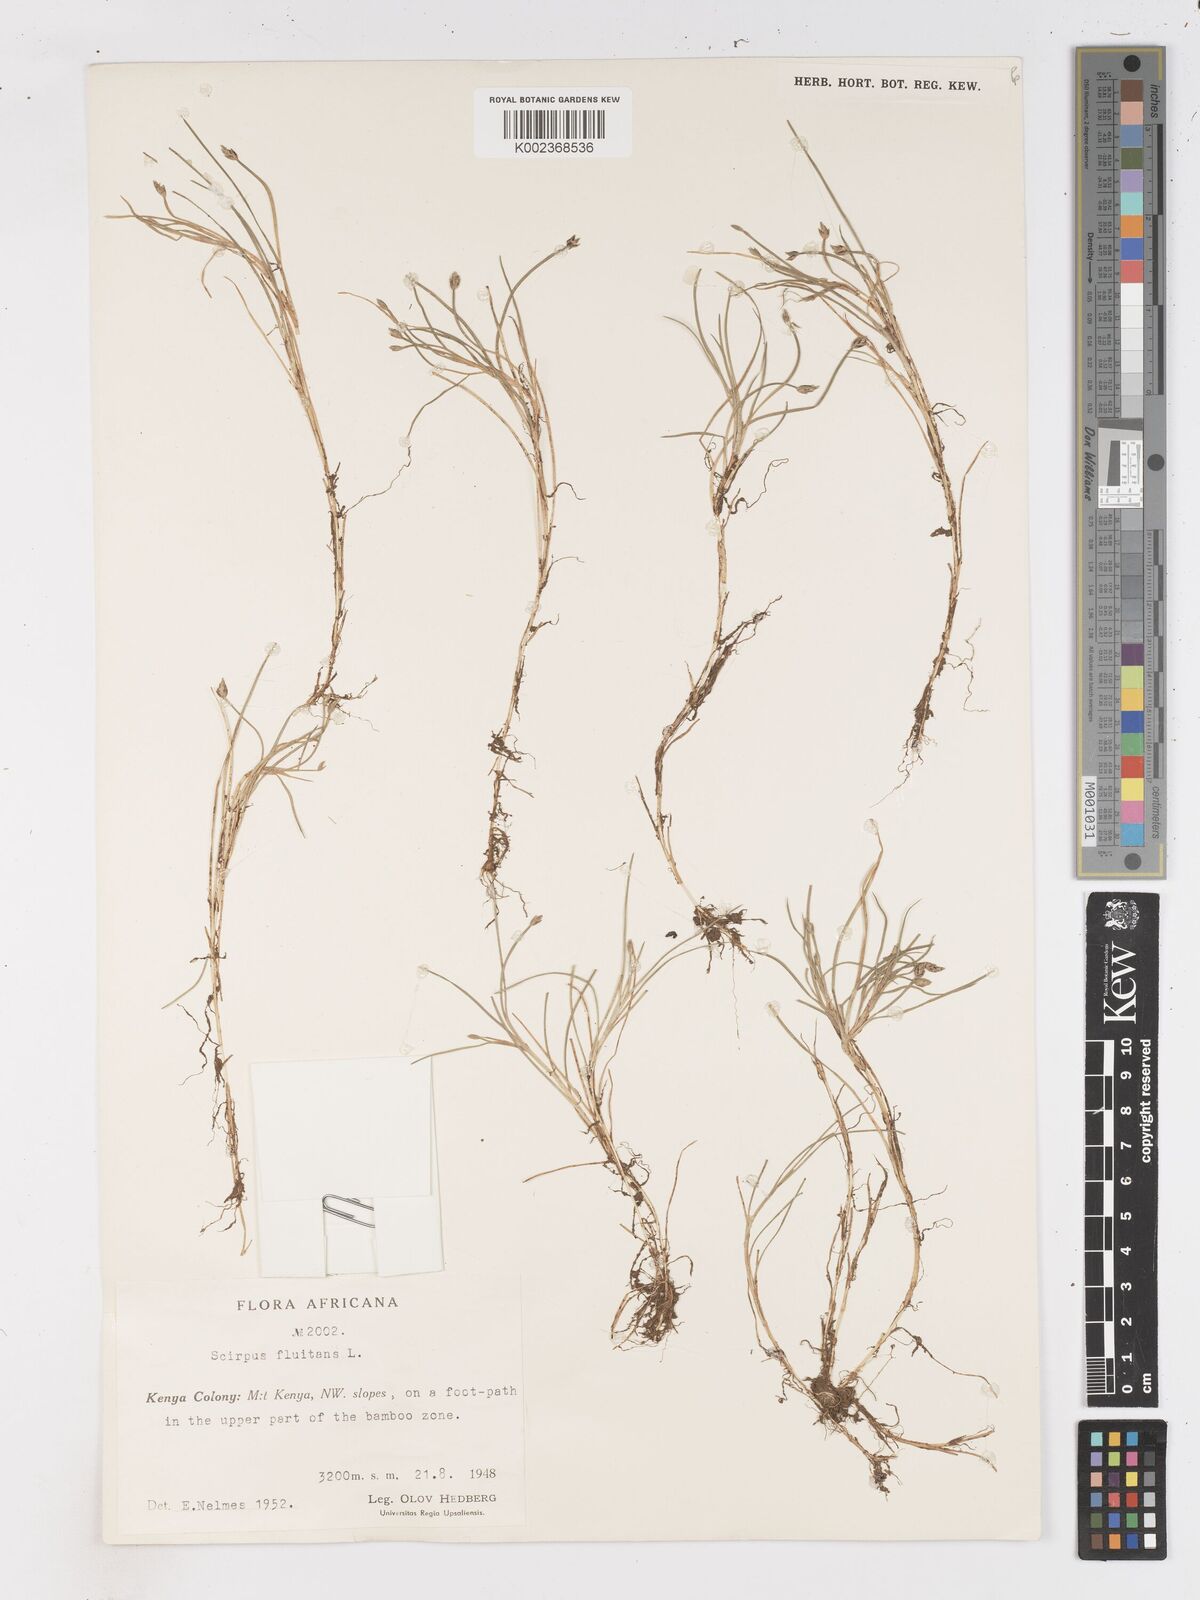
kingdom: Plantae
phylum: Tracheophyta
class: Liliopsida
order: Poales
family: Cyperaceae
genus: Isolepis
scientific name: Isolepis fluitans
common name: Floating club-rush
